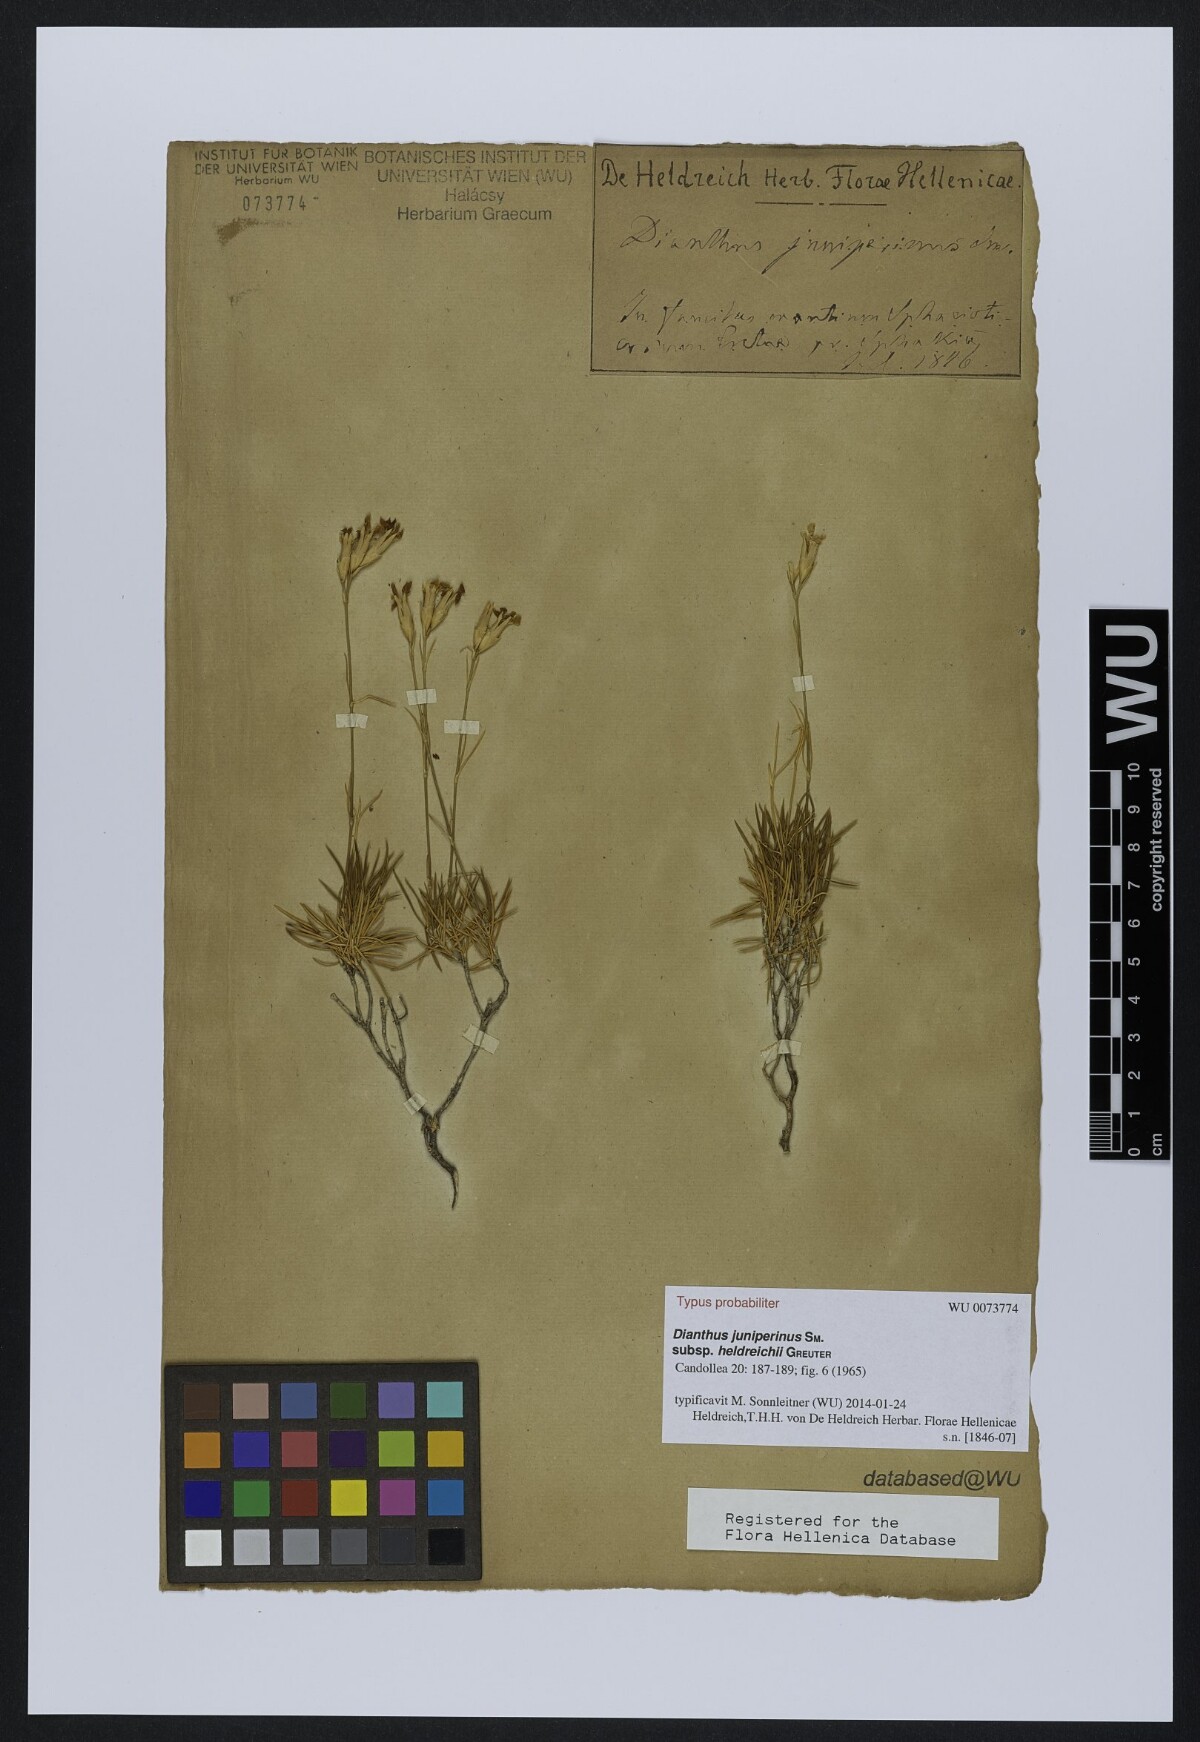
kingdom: Plantae
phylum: Tracheophyta
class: Magnoliopsida
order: Caryophyllales
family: Caryophyllaceae
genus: Dianthus
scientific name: Dianthus juniperinus
